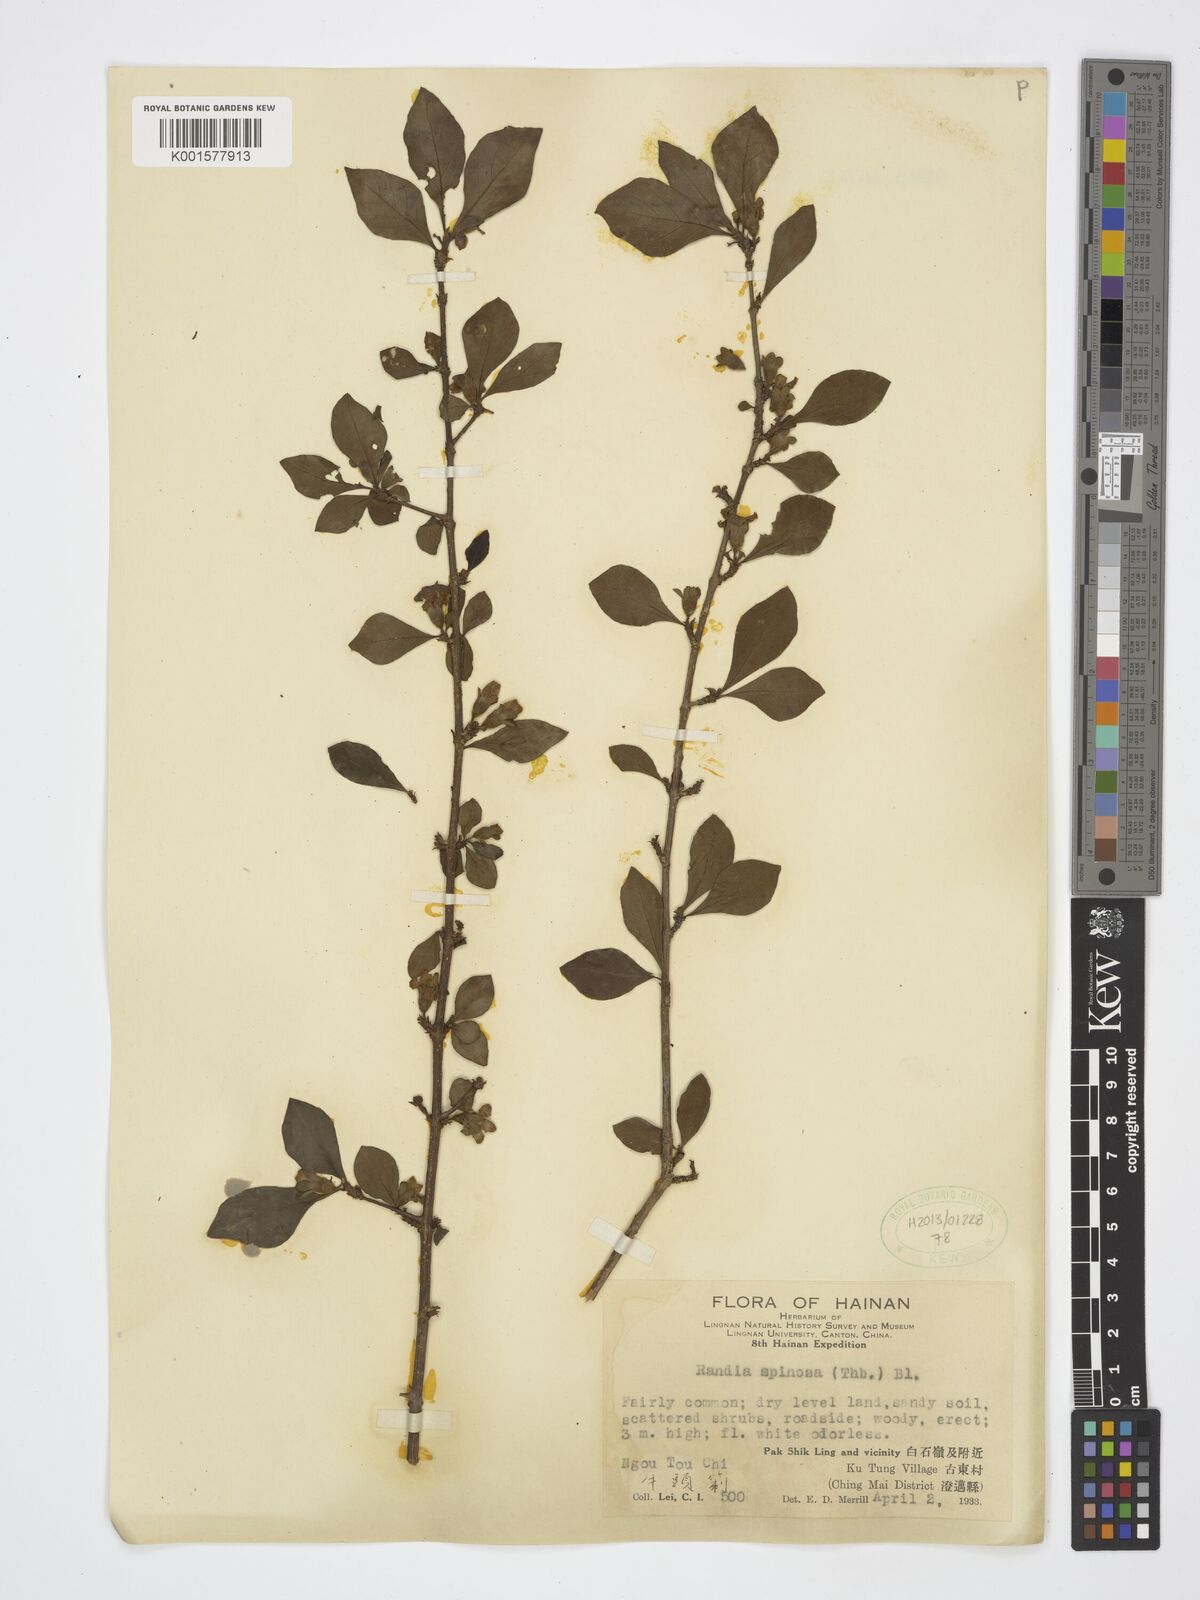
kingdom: Plantae
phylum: Tracheophyta
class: Magnoliopsida
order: Gentianales
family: Rubiaceae
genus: Catunaregam
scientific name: Catunaregam spinosa
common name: Emetic-nut
